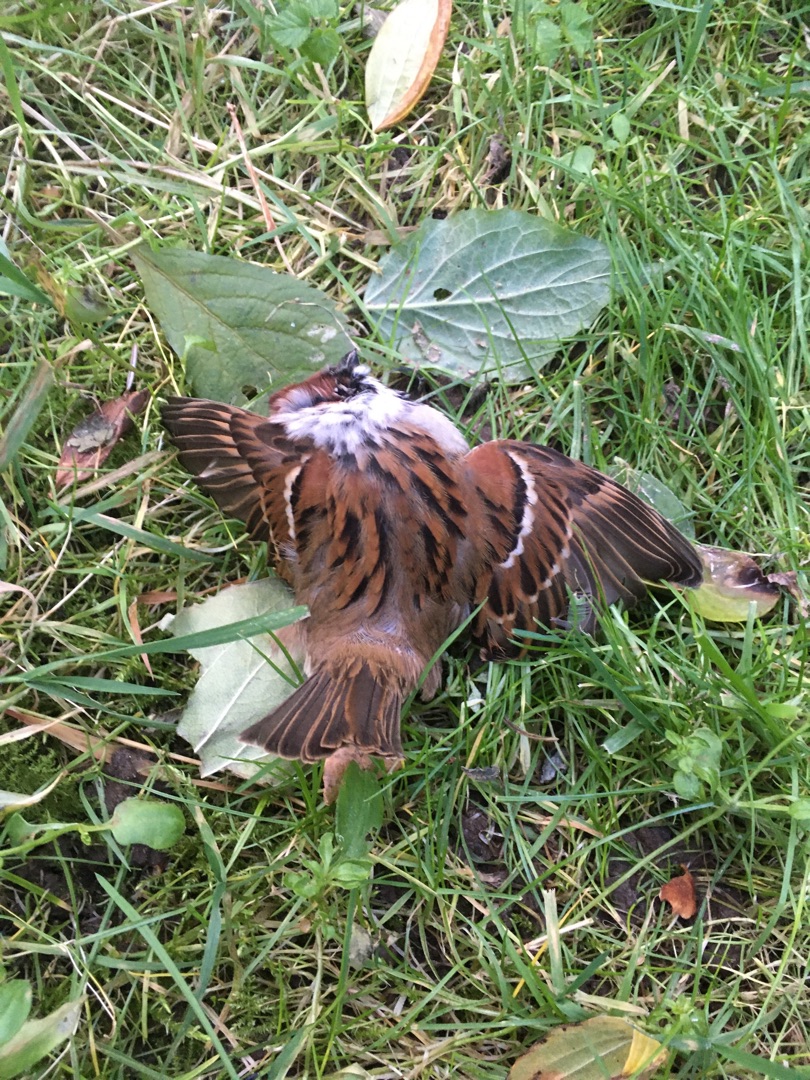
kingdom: Animalia
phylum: Chordata
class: Aves
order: Passeriformes
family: Passeridae
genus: Passer
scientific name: Passer montanus
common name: Skovspurv
